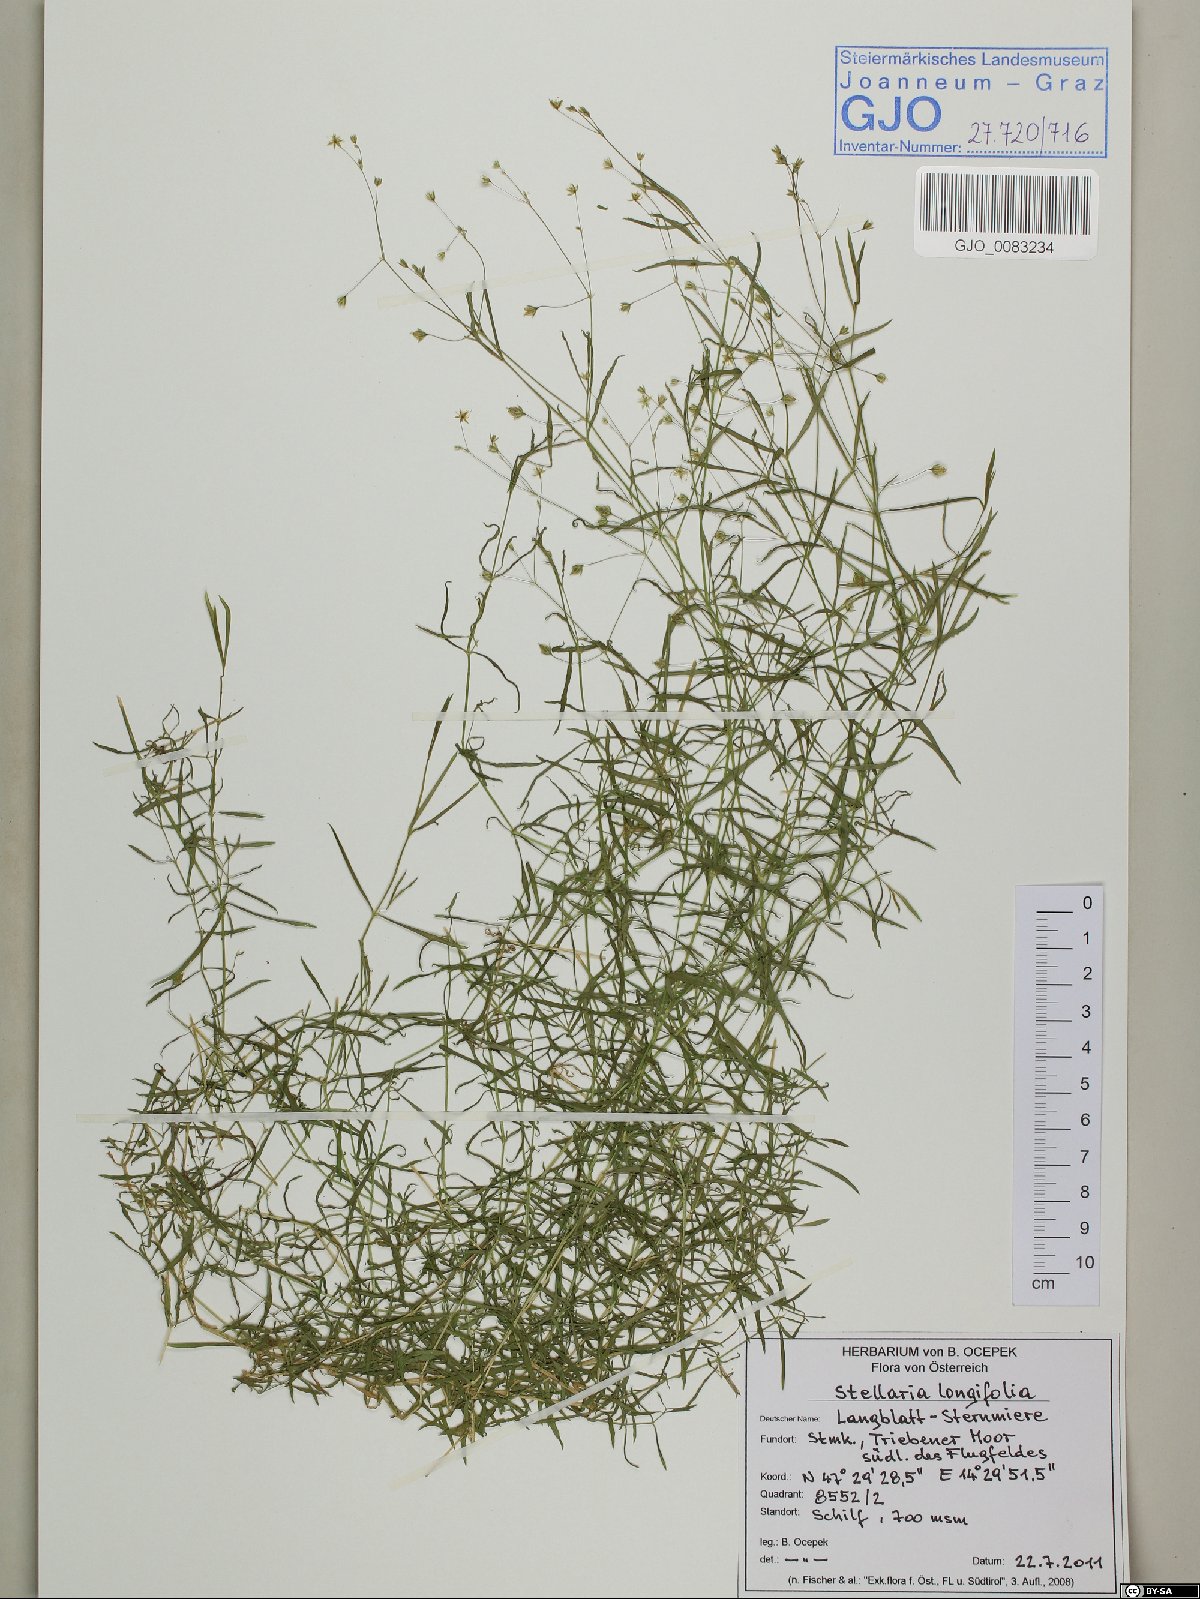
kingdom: Plantae
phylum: Tracheophyta
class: Magnoliopsida
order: Caryophyllales
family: Caryophyllaceae
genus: Stellaria
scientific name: Stellaria longifolia
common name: Long-leaved chickweed
